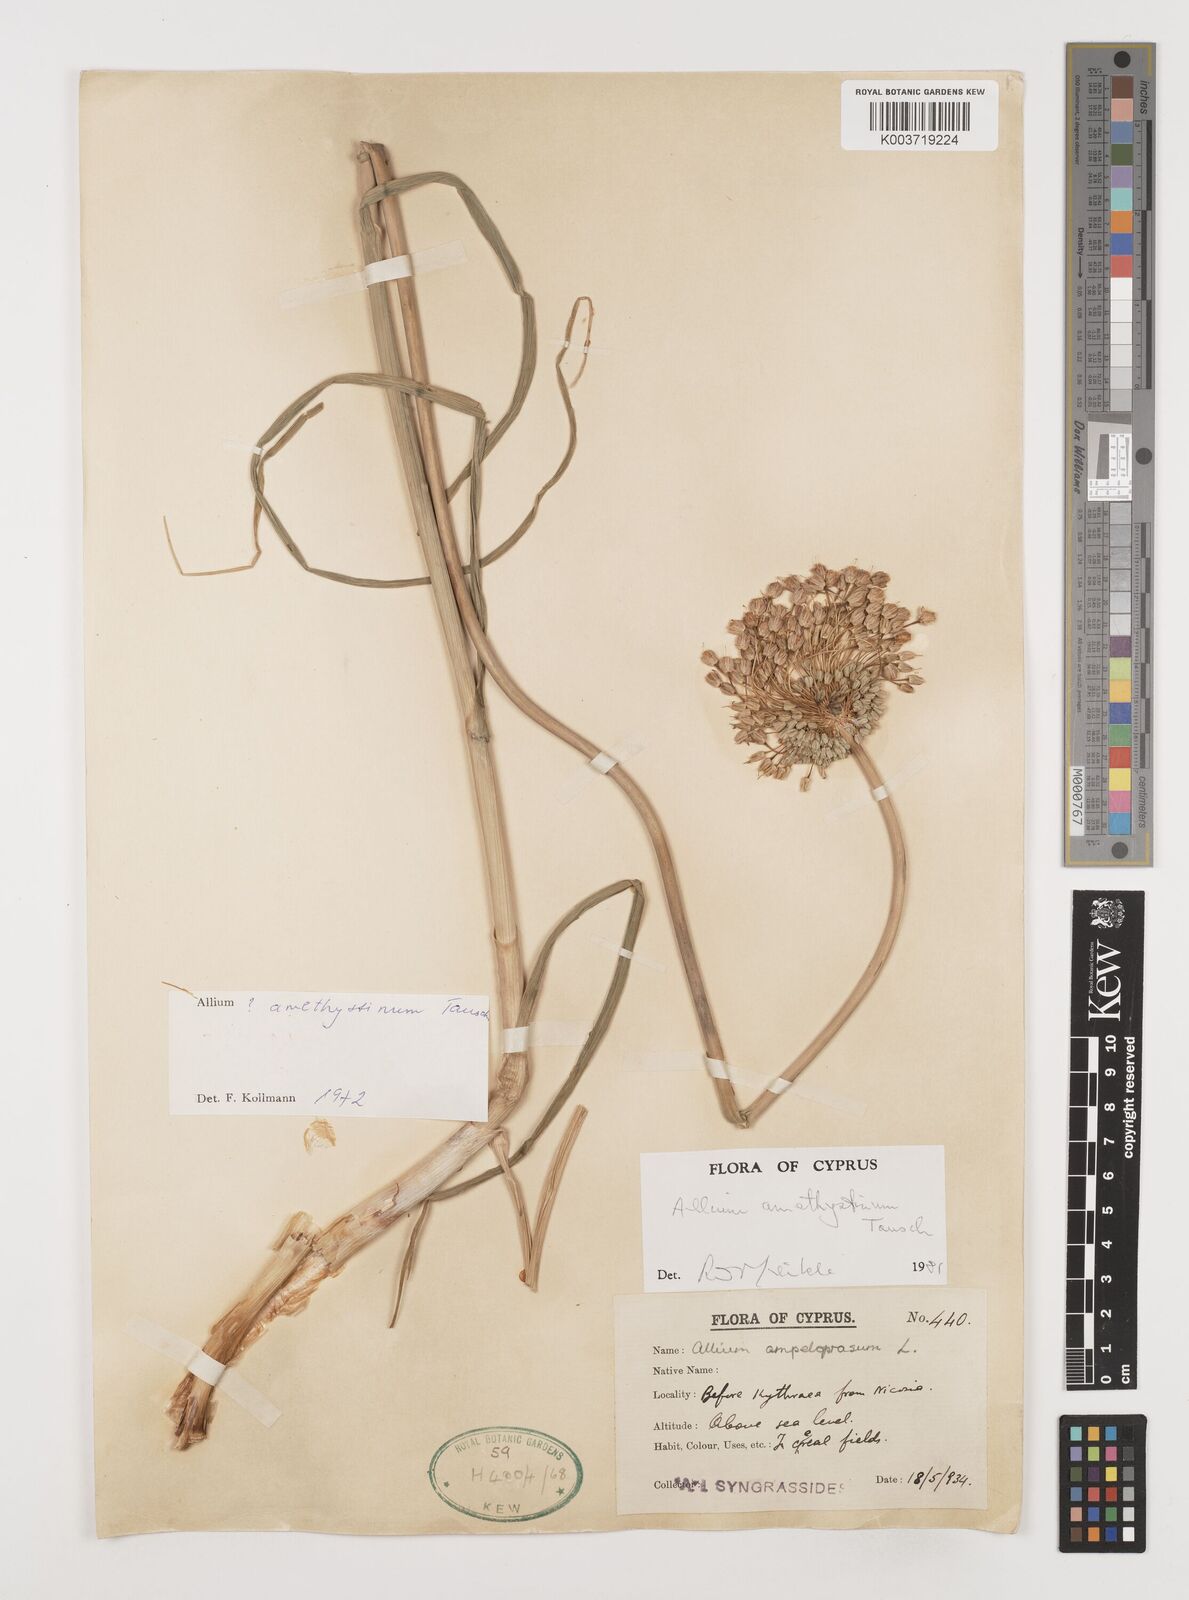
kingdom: Plantae
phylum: Tracheophyta
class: Liliopsida
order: Asparagales
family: Amaryllidaceae
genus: Allium
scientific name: Allium amethystinum
